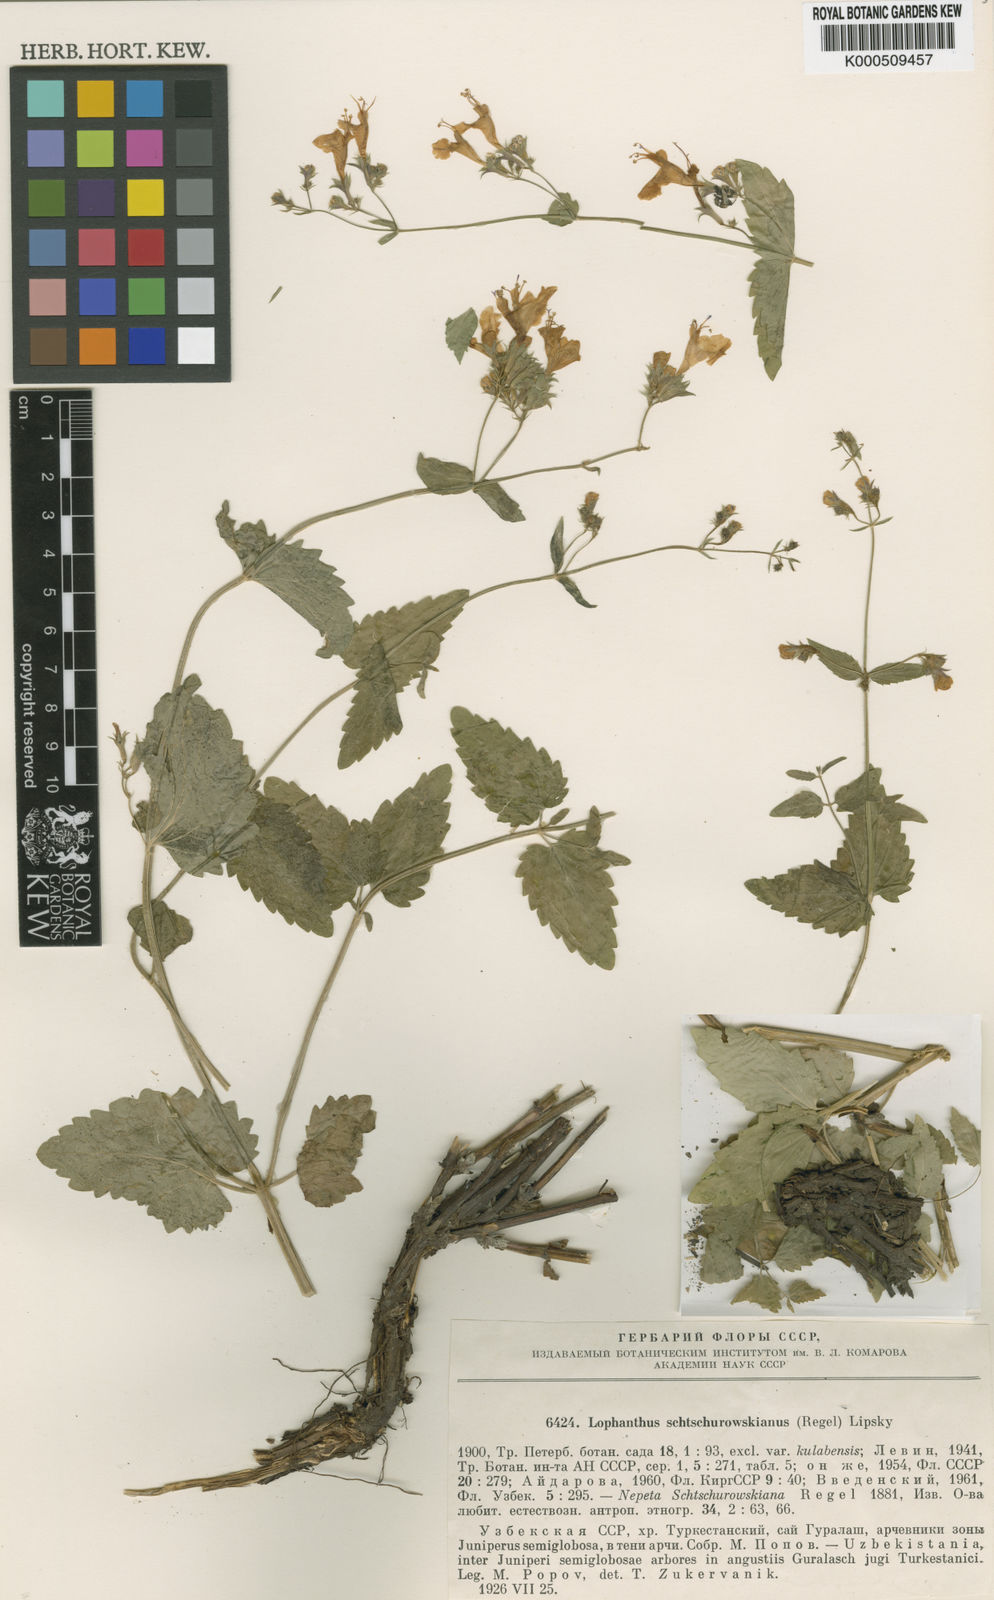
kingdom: Plantae
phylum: Tracheophyta
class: Magnoliopsida
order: Lamiales
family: Lamiaceae
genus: Nepeta
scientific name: Nepeta schtschurowskiana
